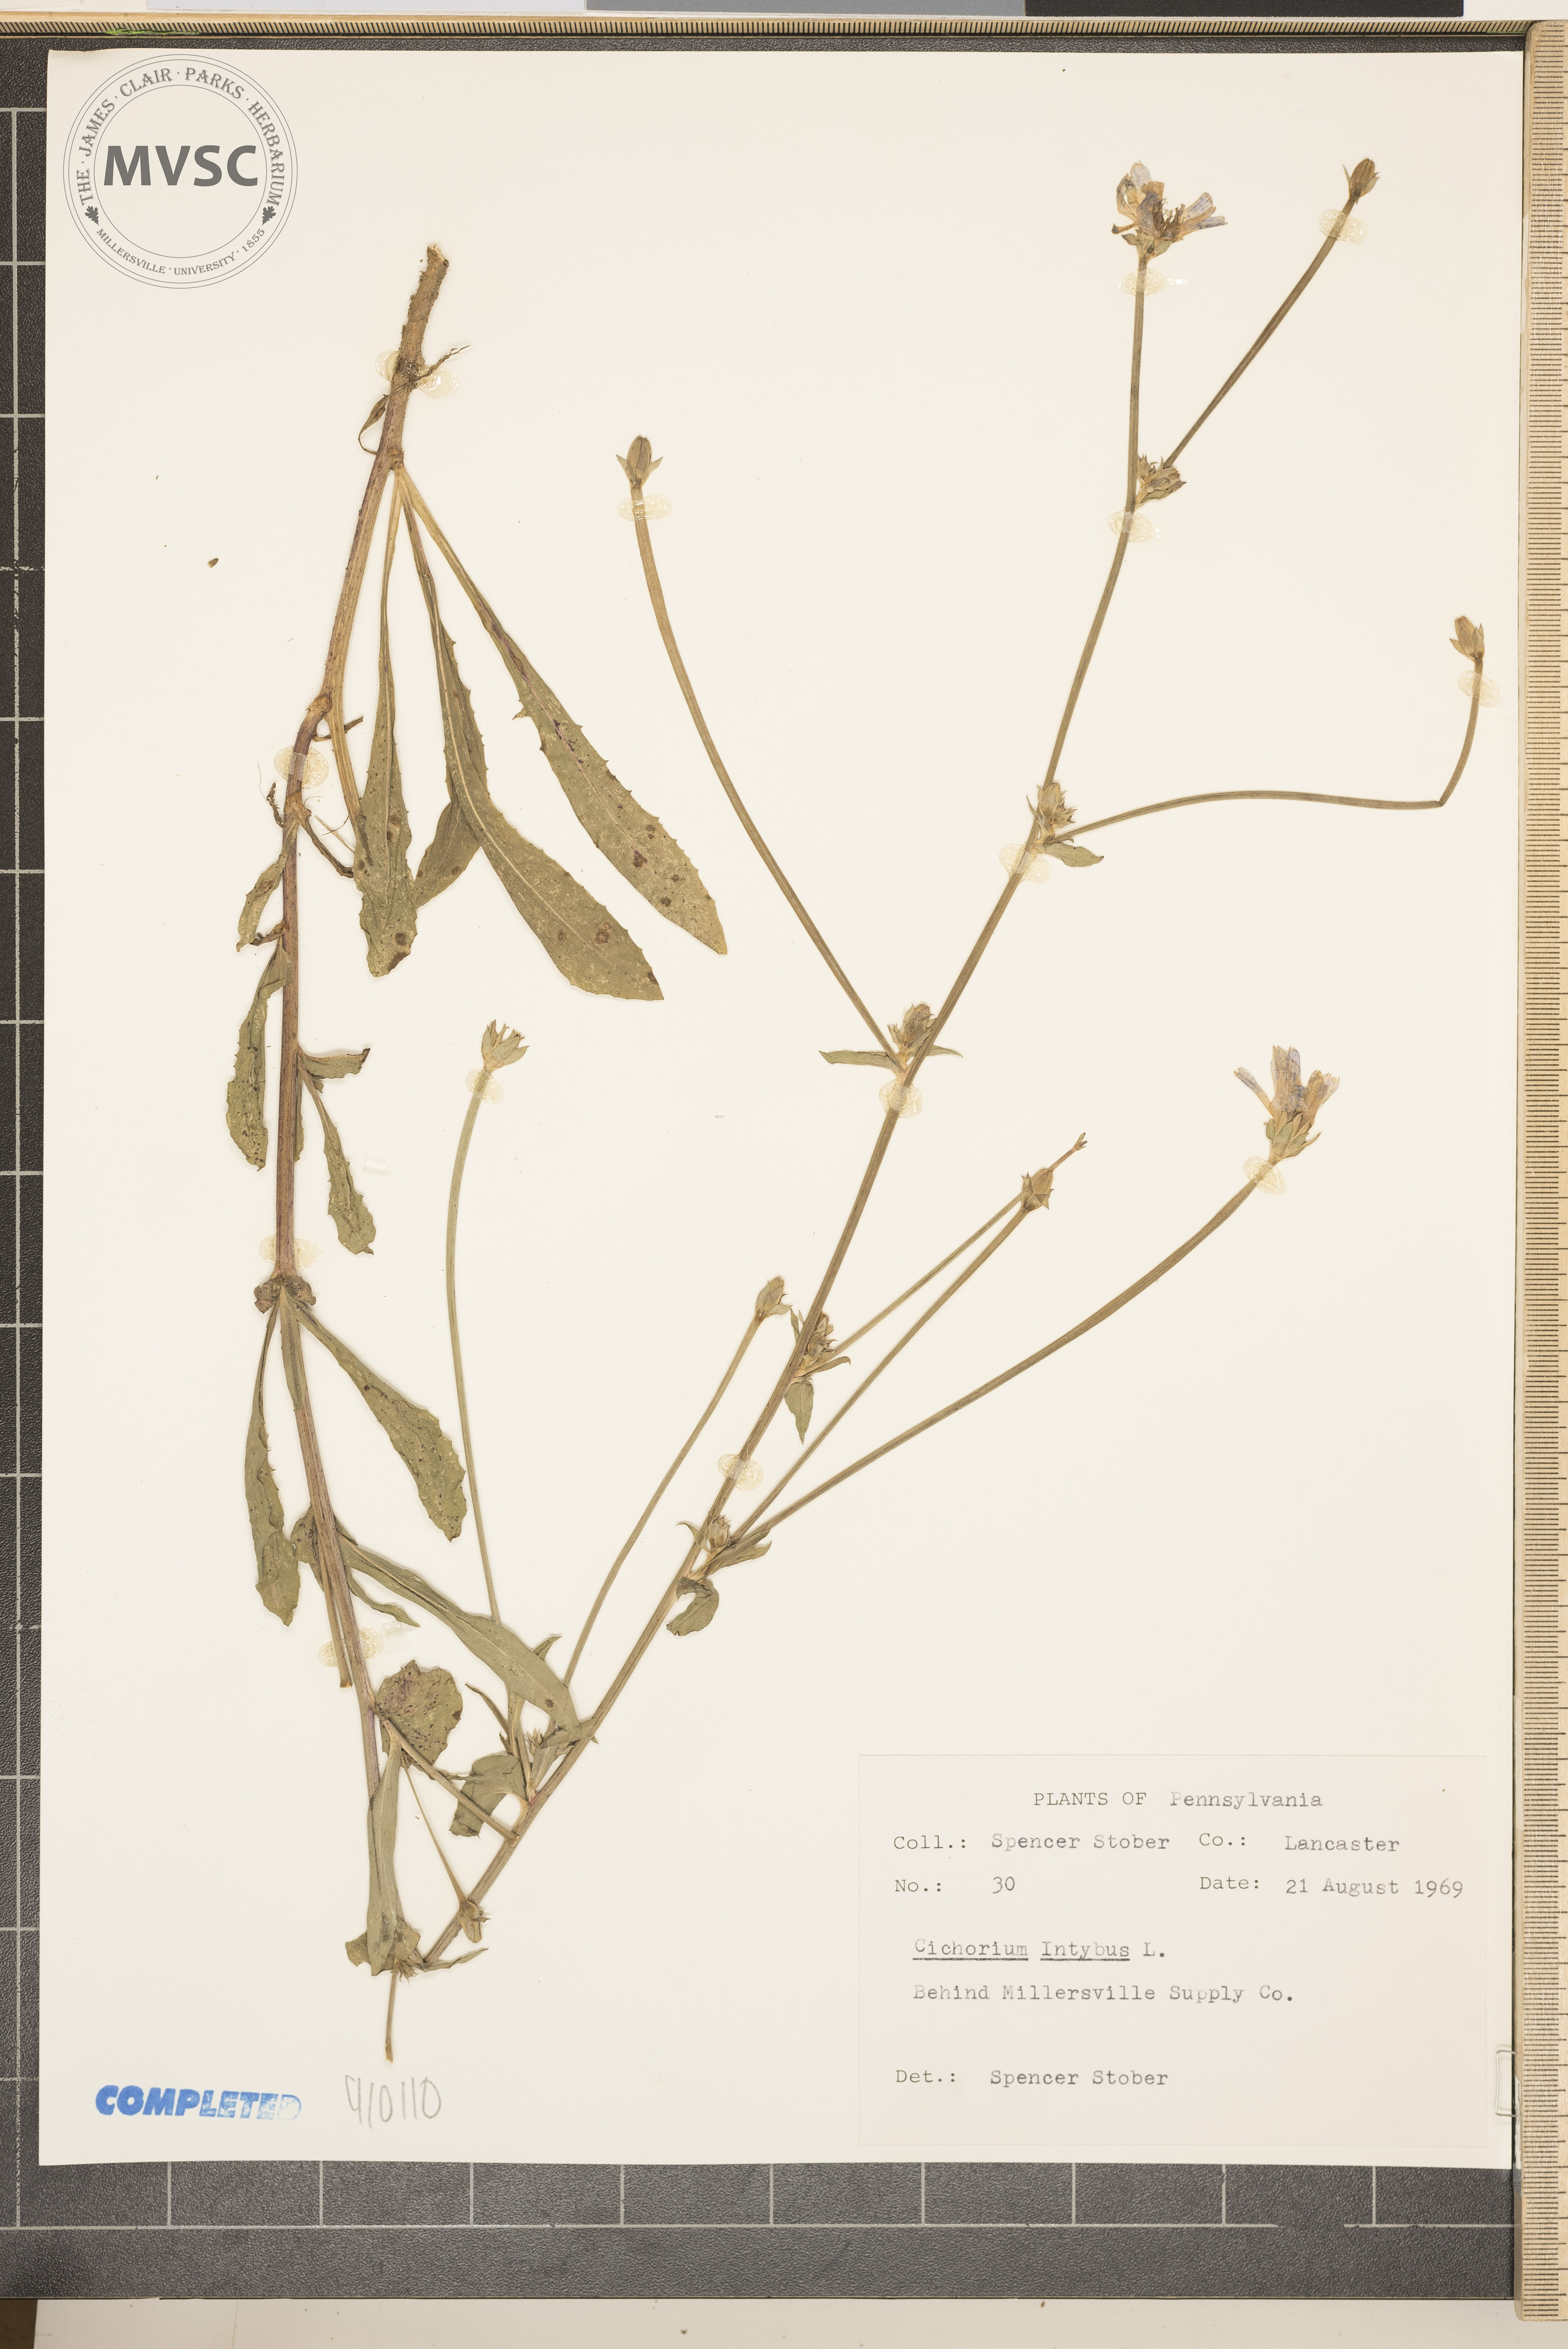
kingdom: Plantae
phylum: Tracheophyta
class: Magnoliopsida
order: Asterales
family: Asteraceae
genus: Cichorium
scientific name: Cichorium intybus
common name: Chicory
